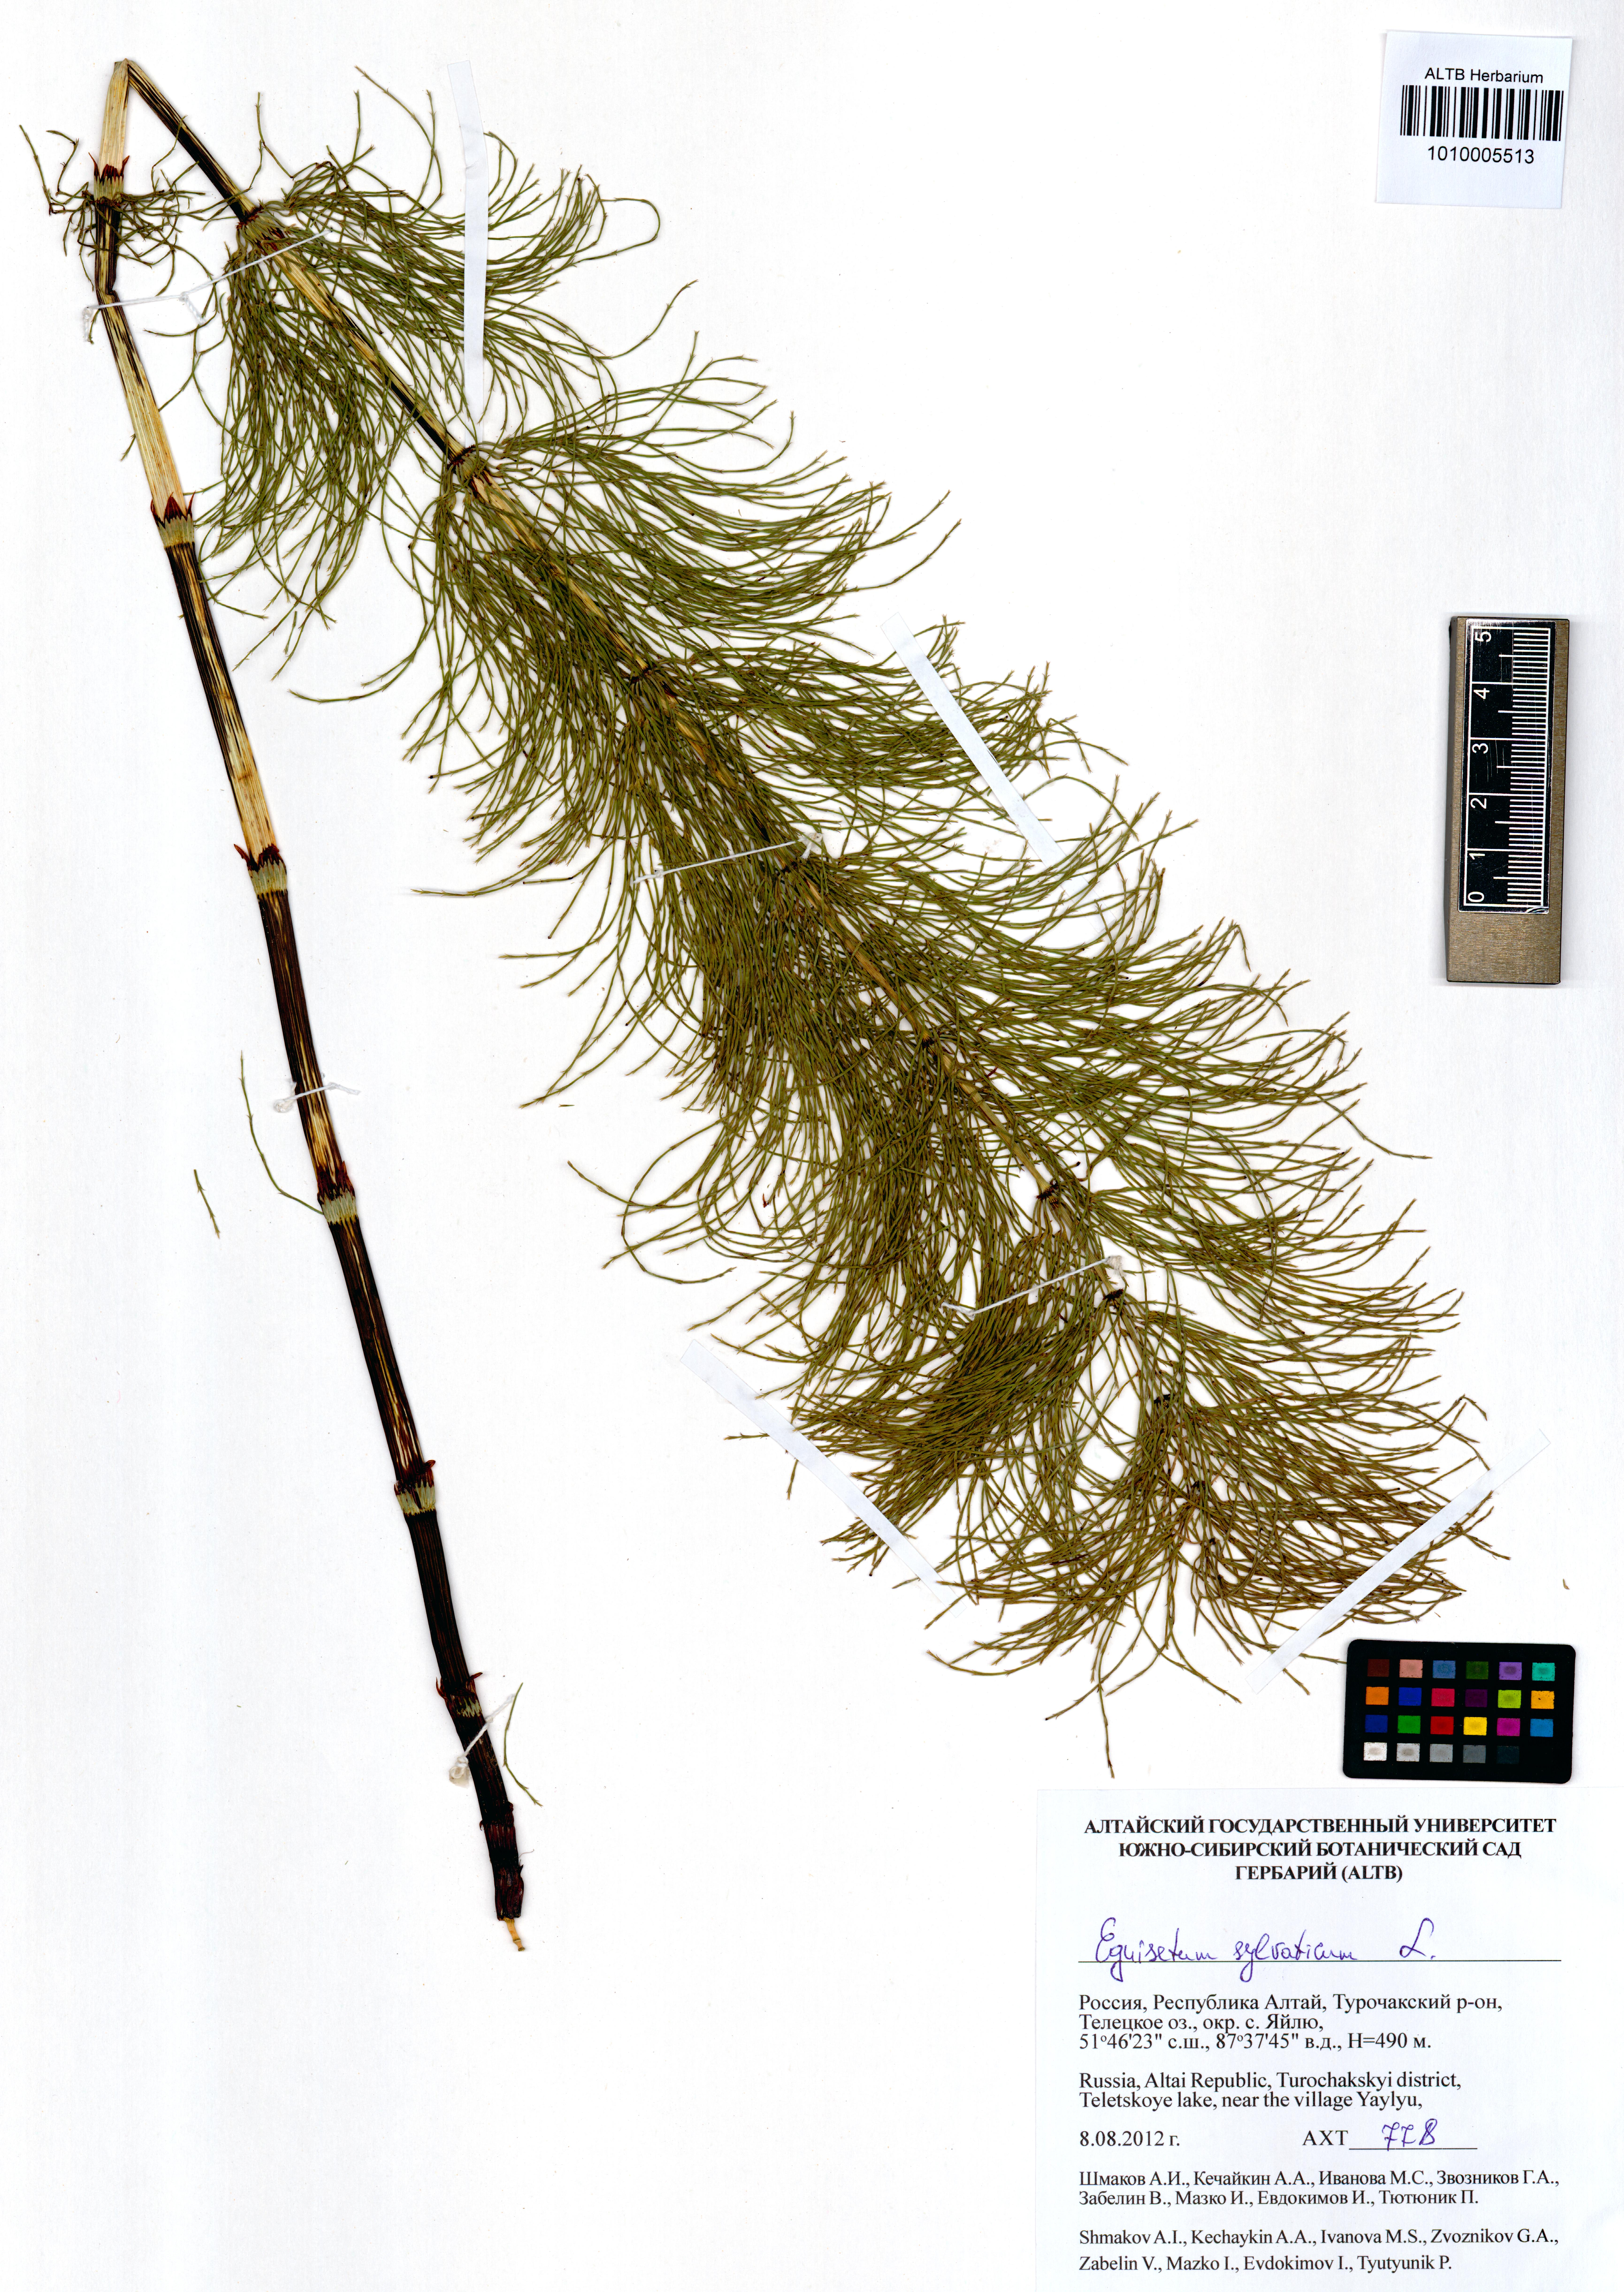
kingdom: Plantae
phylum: Tracheophyta
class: Polypodiopsida
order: Equisetales
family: Equisetaceae
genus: Equisetum
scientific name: Equisetum sylvaticum
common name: Wood horsetail
